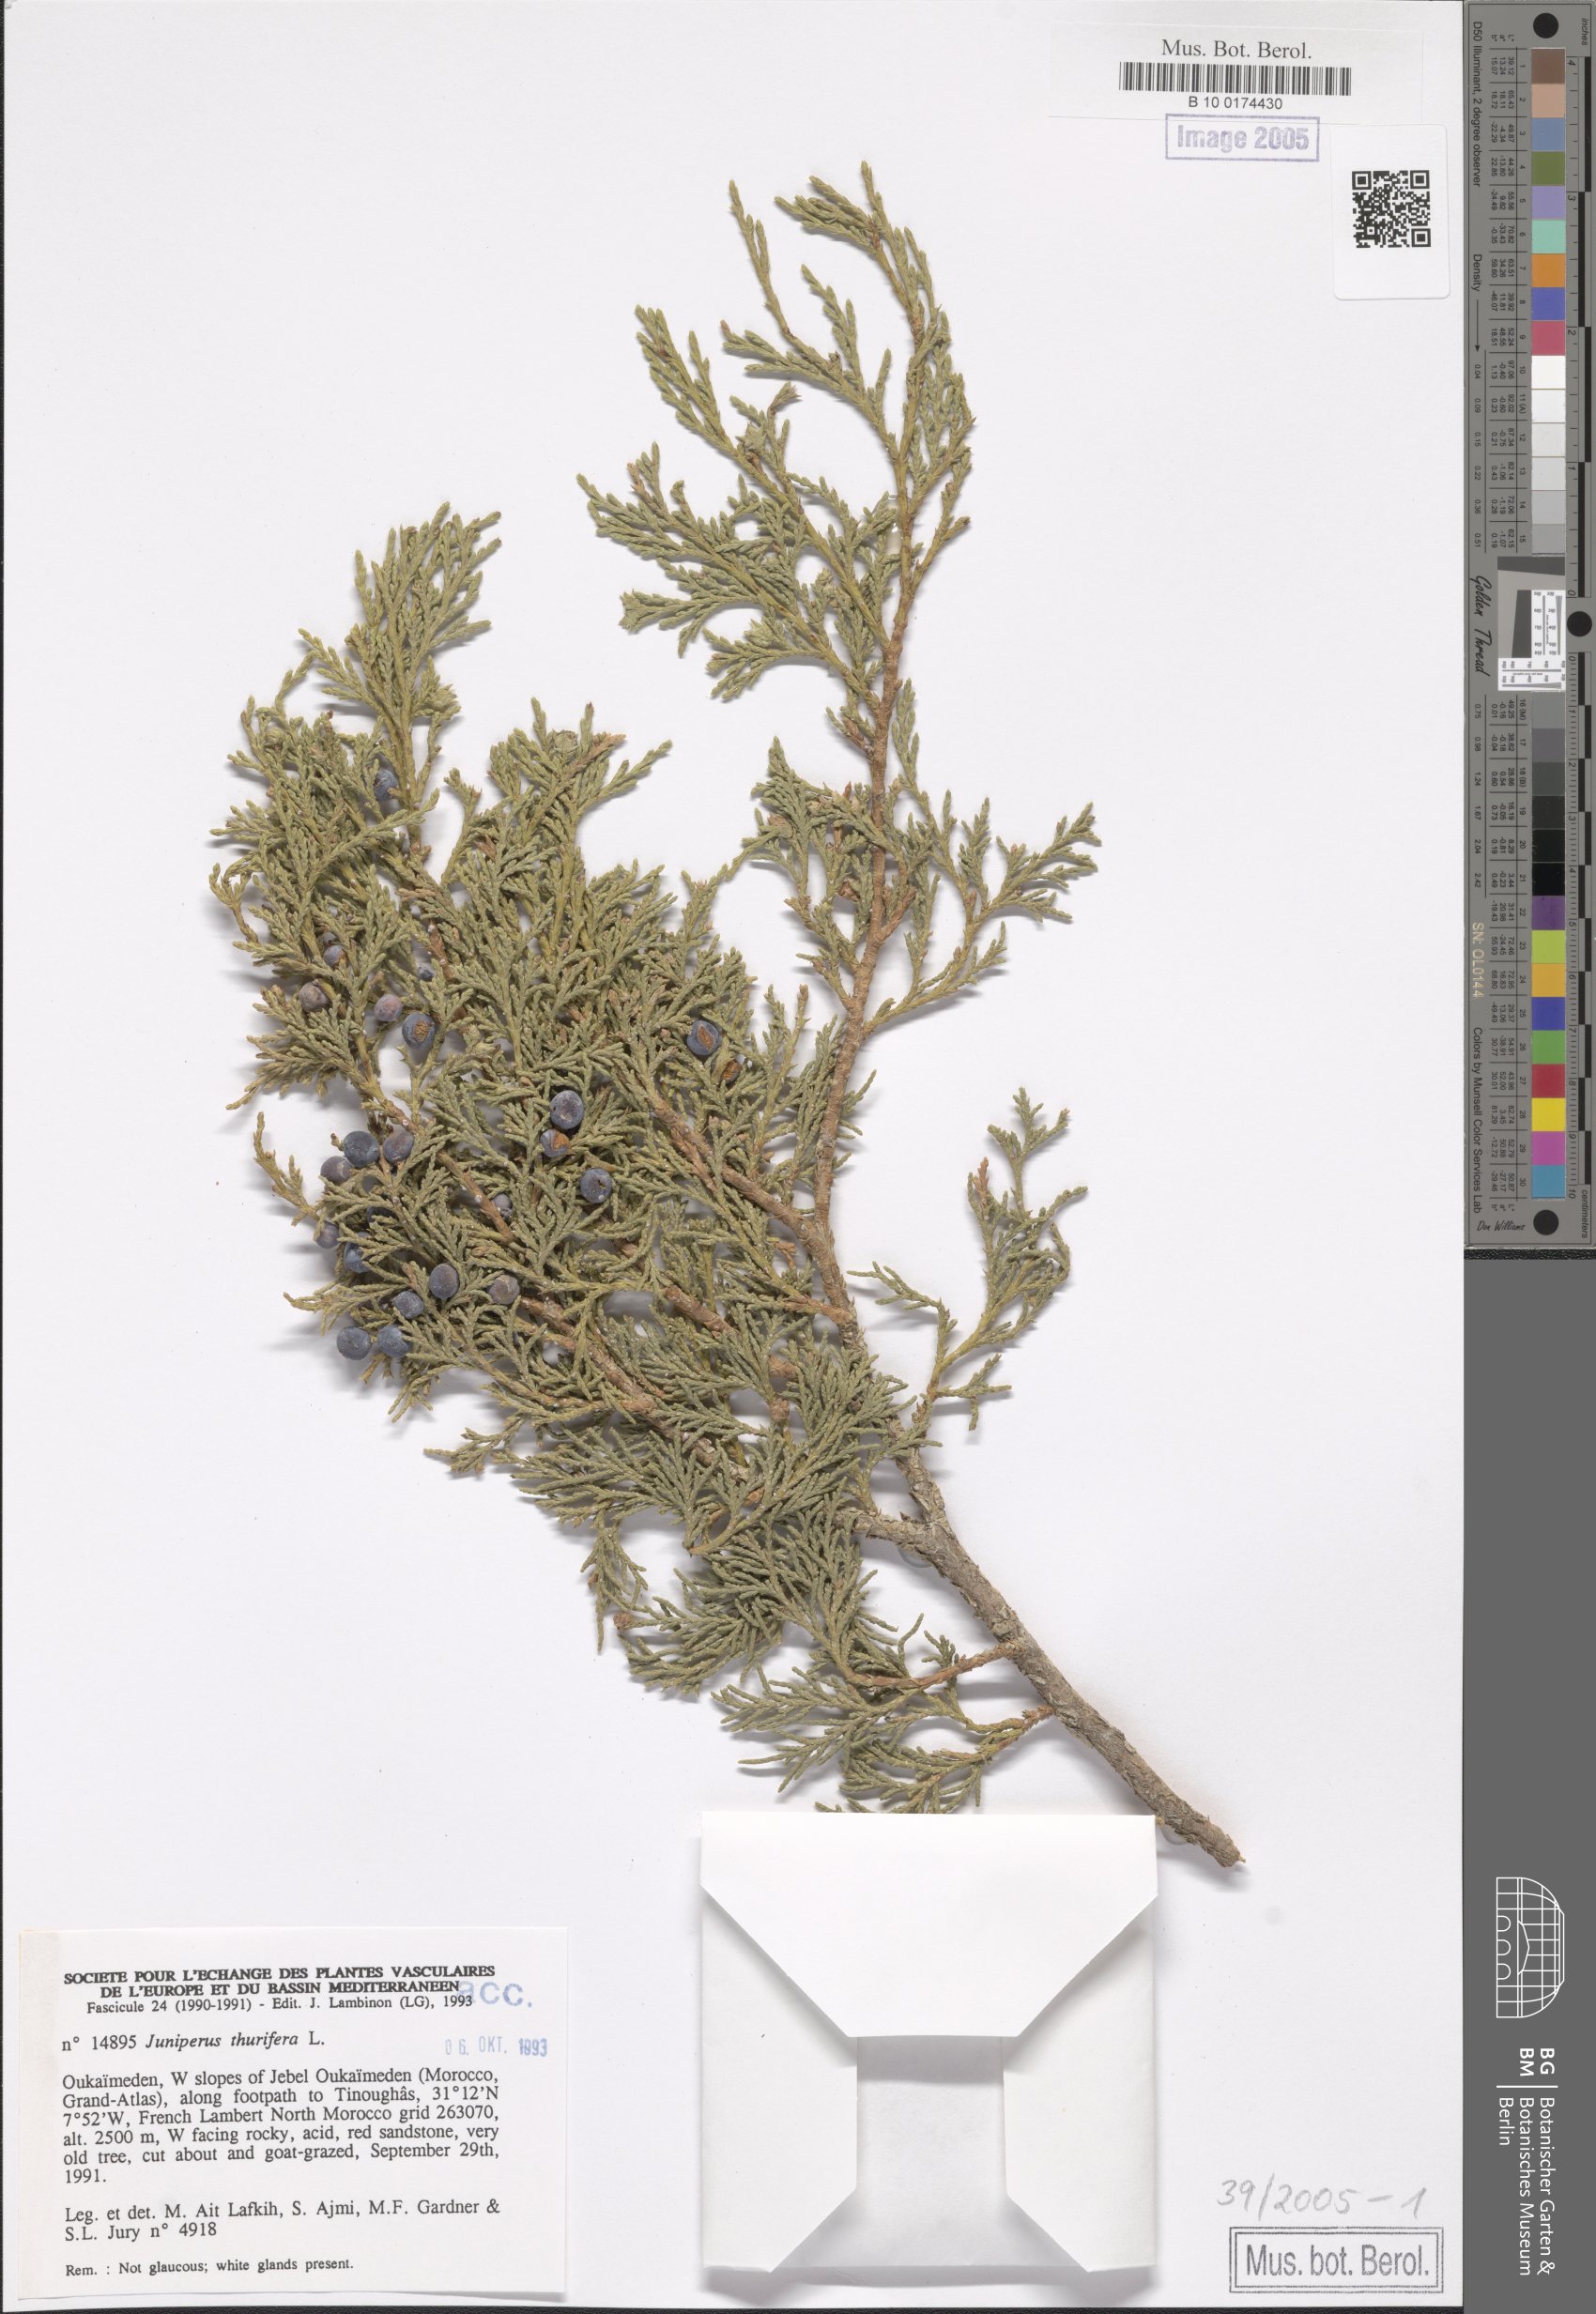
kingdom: Plantae
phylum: Tracheophyta
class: Pinopsida
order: Pinales
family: Cupressaceae
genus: Juniperus
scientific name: Juniperus thurifera
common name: Incense juniper
